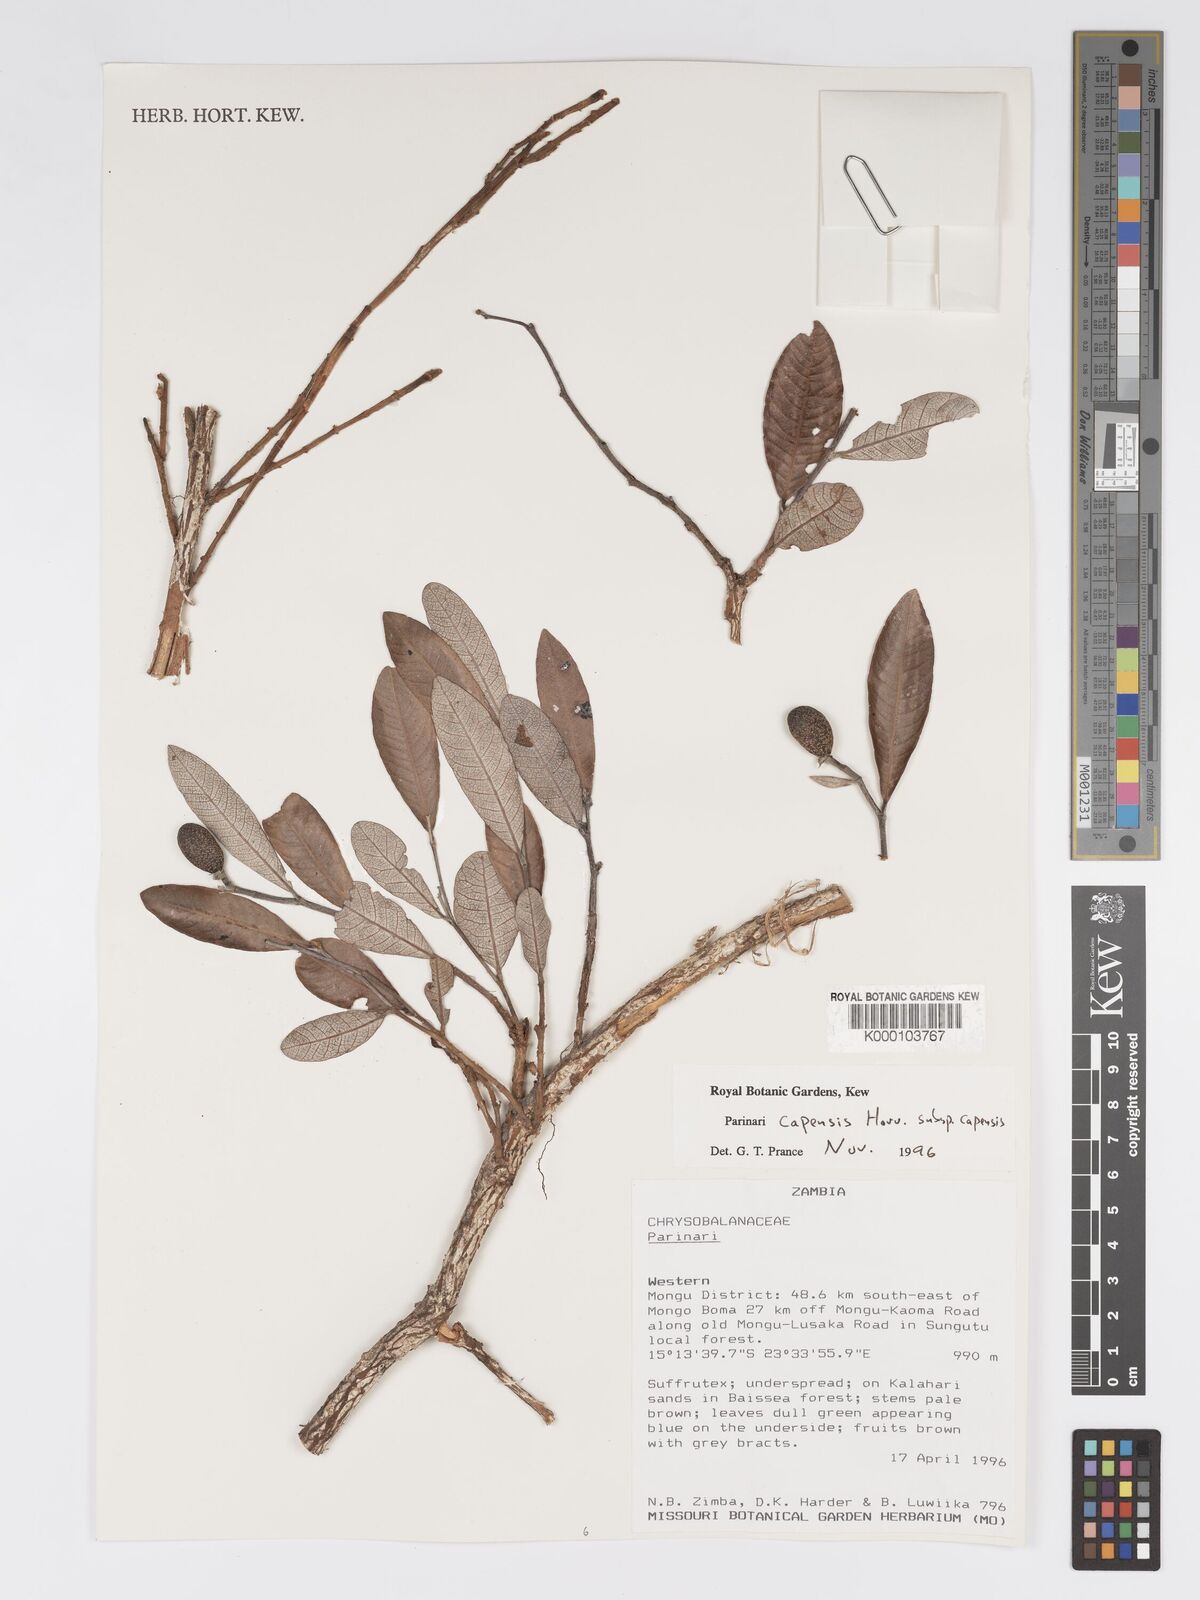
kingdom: Plantae
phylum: Tracheophyta
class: Magnoliopsida
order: Malpighiales
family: Chrysobalanaceae
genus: Parinari
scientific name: Parinari capensis
